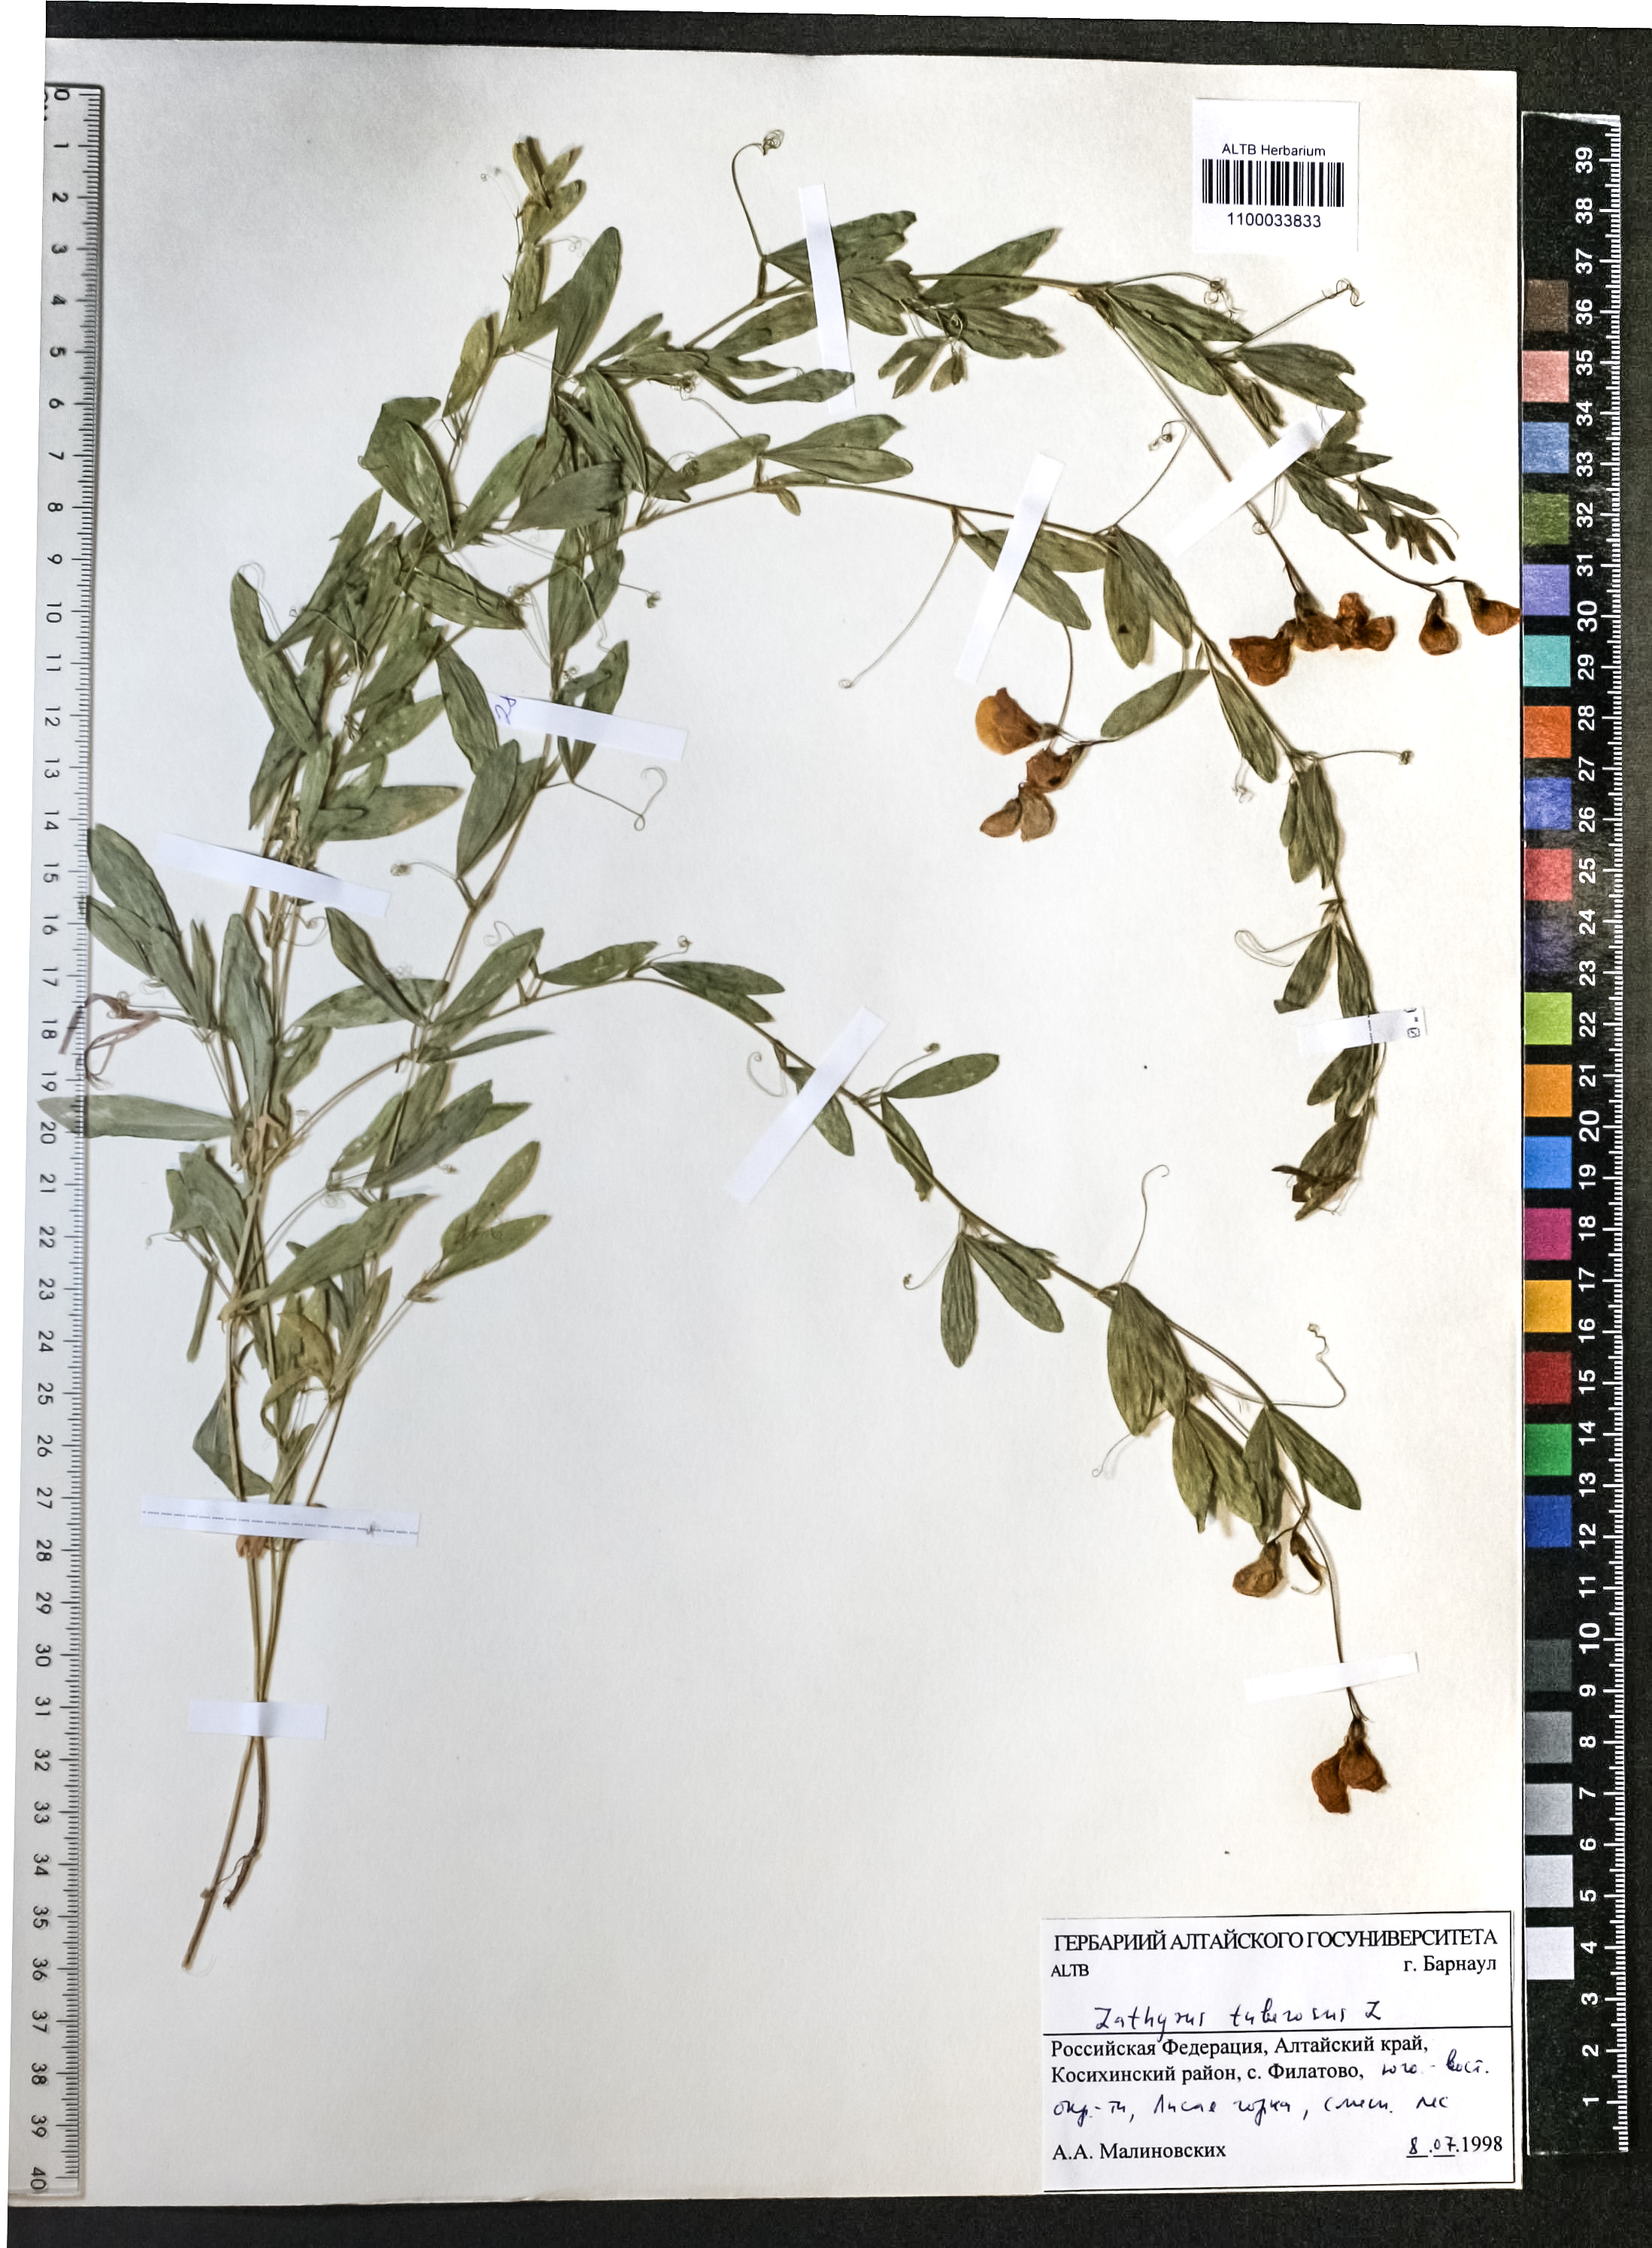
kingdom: Plantae
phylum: Tracheophyta
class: Magnoliopsida
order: Fabales
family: Fabaceae
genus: Lathyrus
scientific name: Lathyrus tuberosus
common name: Tuberous pea
